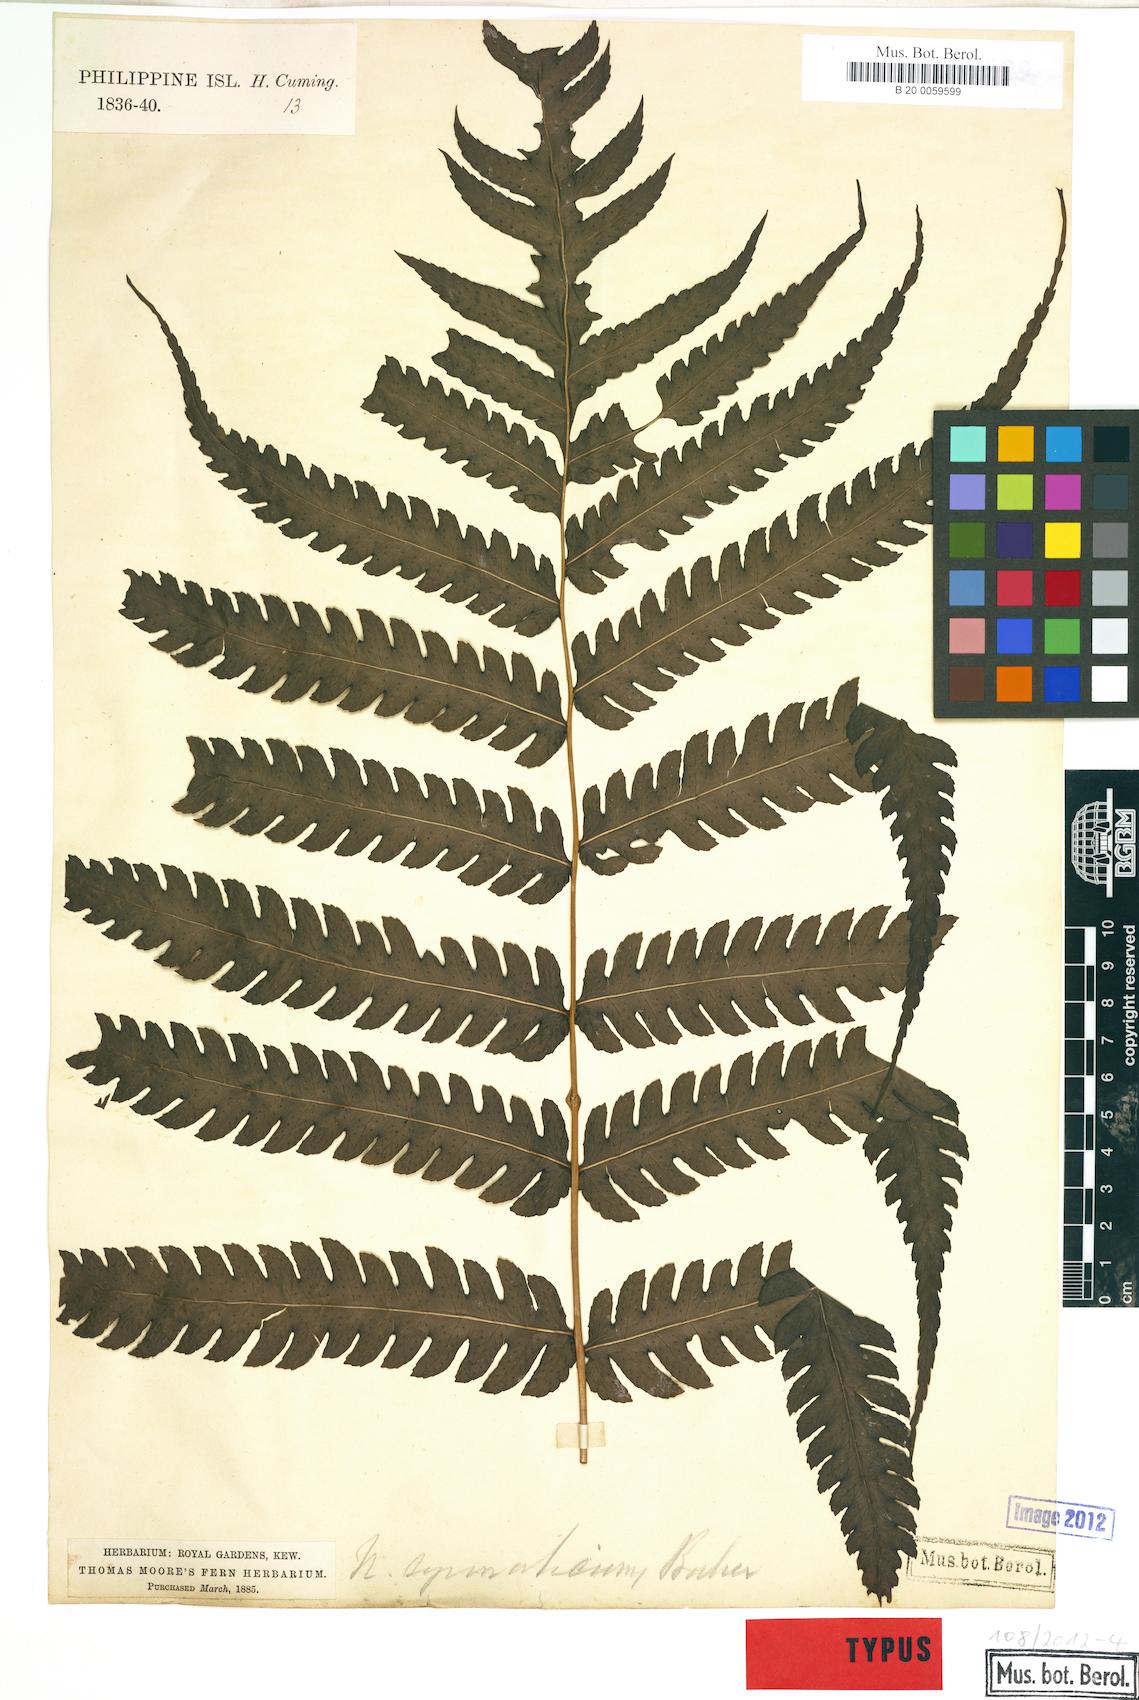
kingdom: Plantae
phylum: Tracheophyta
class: Polypodiopsida
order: Polypodiales
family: Dryopteridaceae
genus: Polystichum
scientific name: Polystichum multifidum
